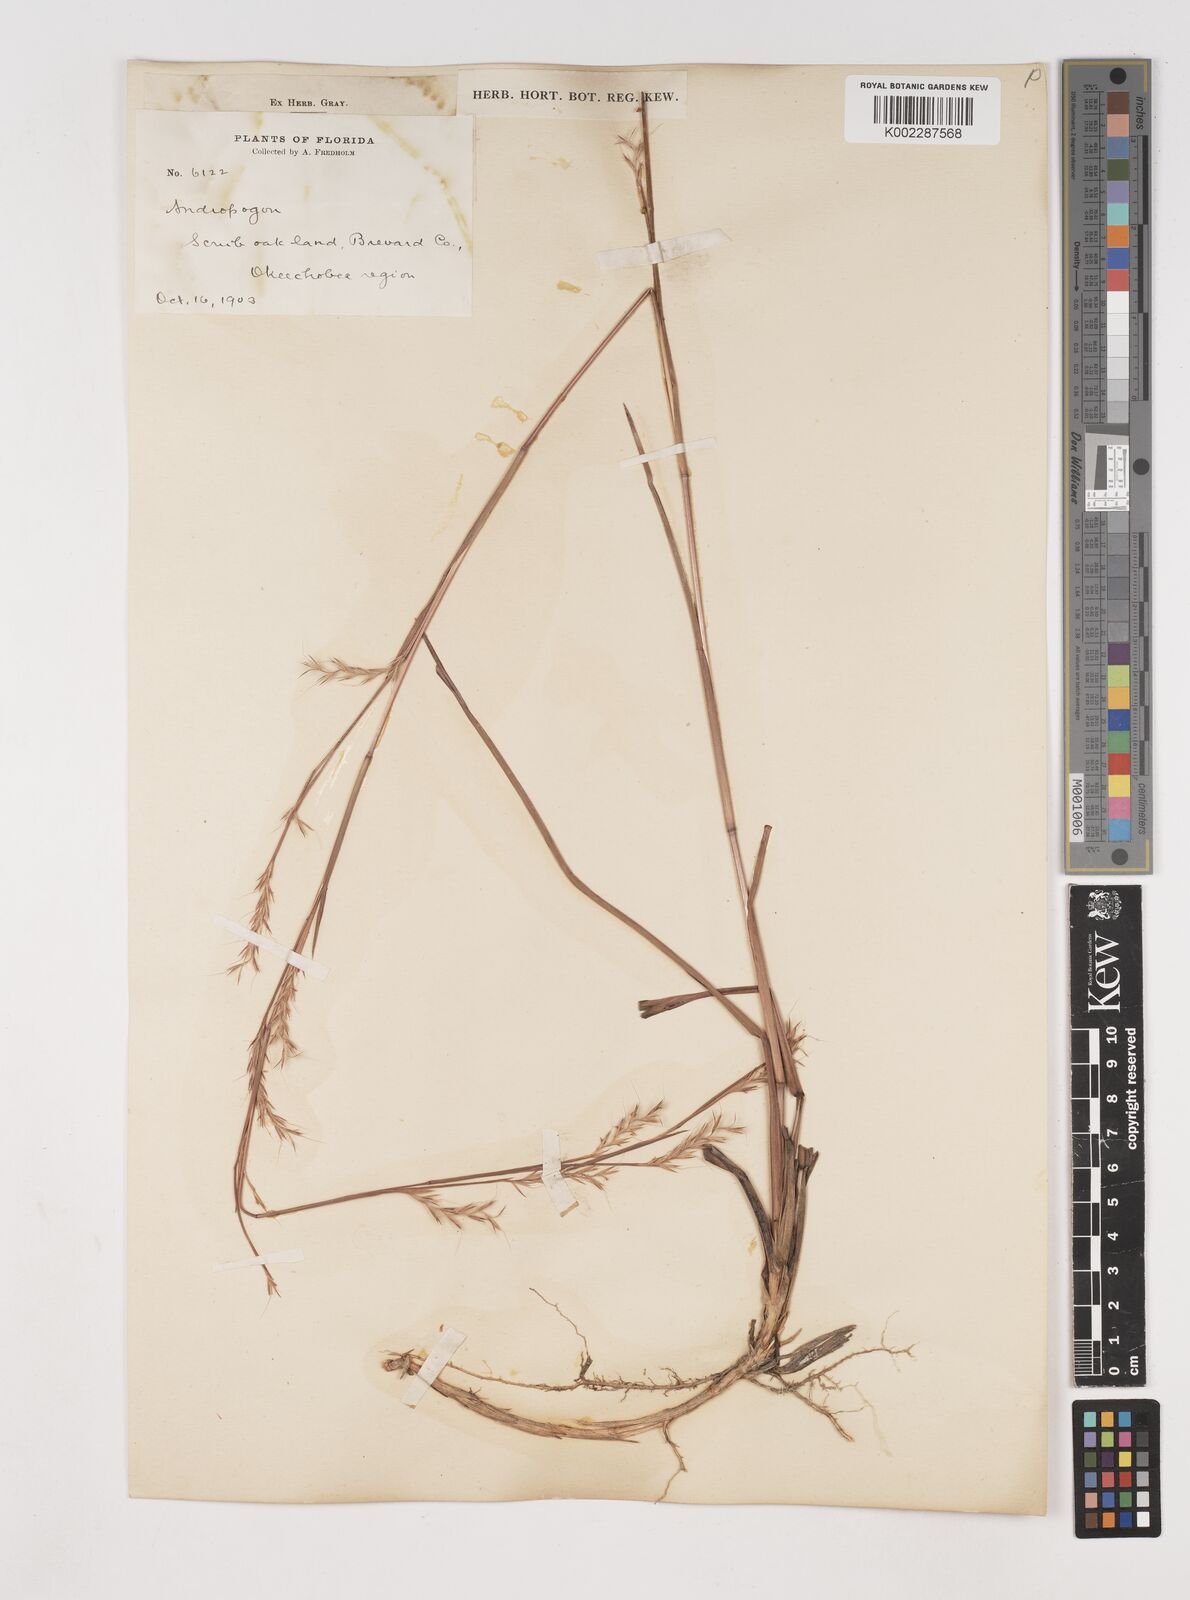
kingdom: Plantae
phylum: Tracheophyta
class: Liliopsida
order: Poales
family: Poaceae
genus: Schizachyrium
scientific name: Schizachyrium scoparium
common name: Little bluestem
